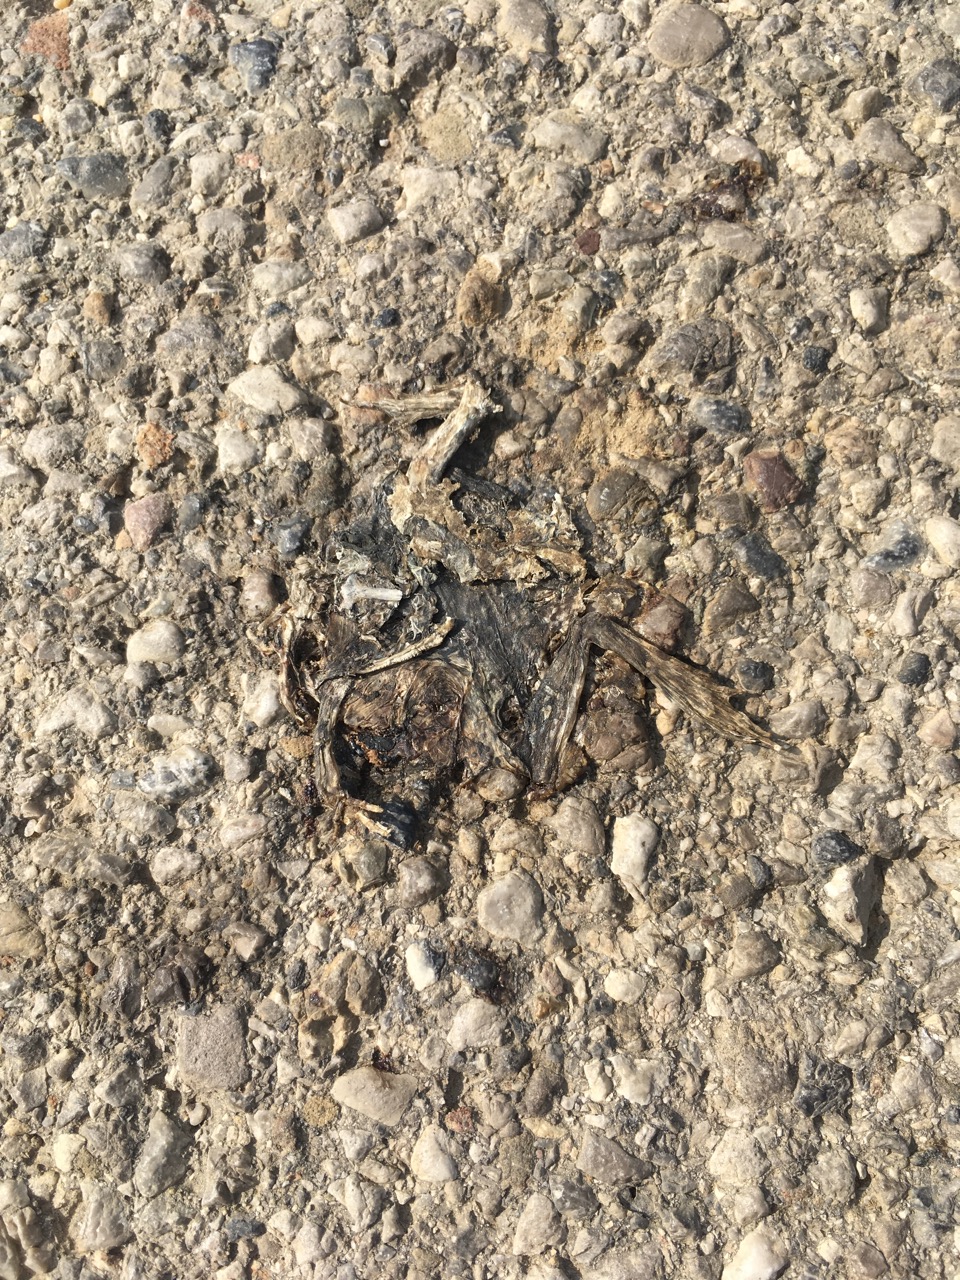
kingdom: Animalia
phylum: Chordata
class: Amphibia
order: Anura
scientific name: Anura
